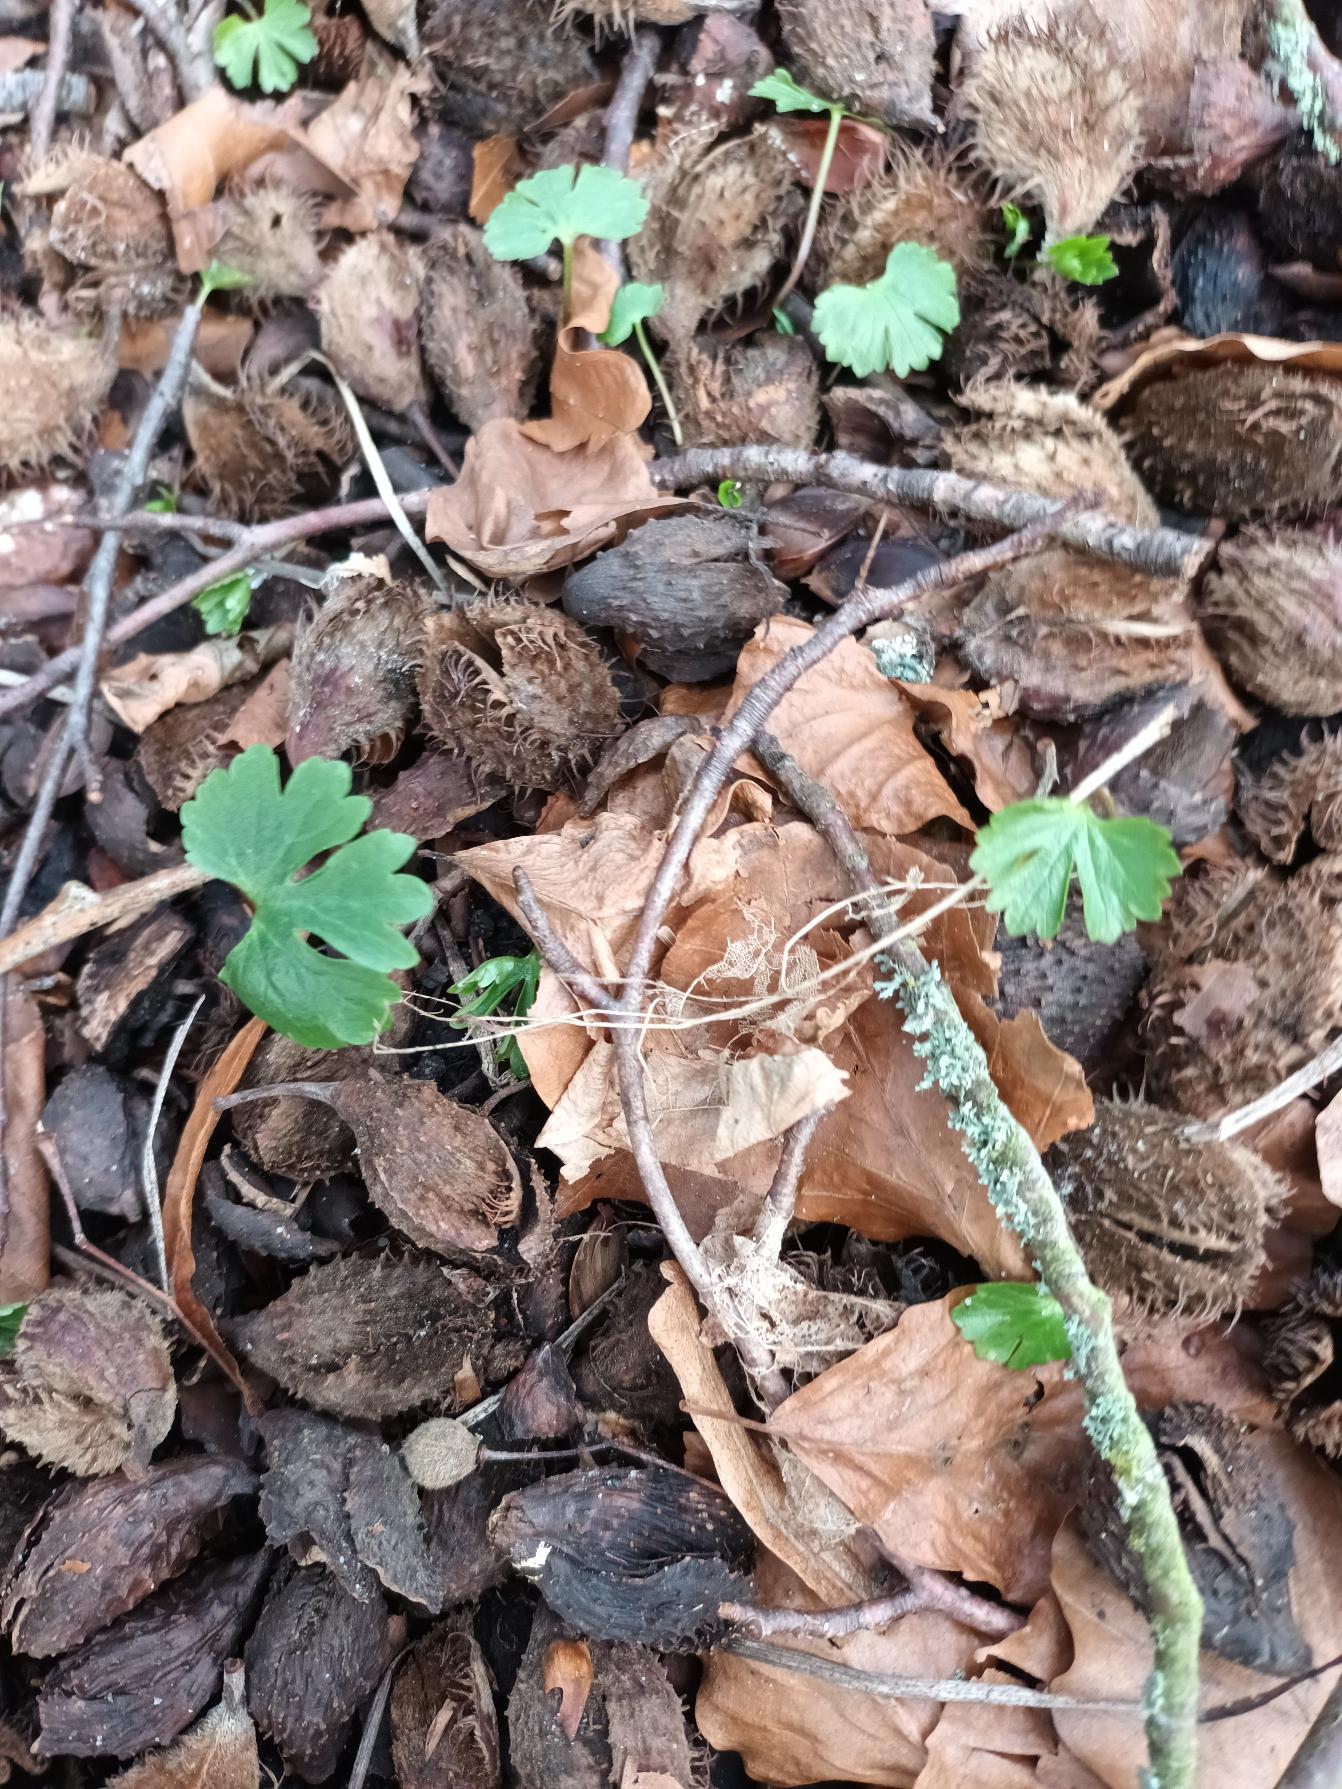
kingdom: Plantae
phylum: Tracheophyta
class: Magnoliopsida
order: Ranunculales
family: Ranunculaceae
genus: Ranunculus
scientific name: Ranunculus auricomus
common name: Nyrebladet ranunkel
